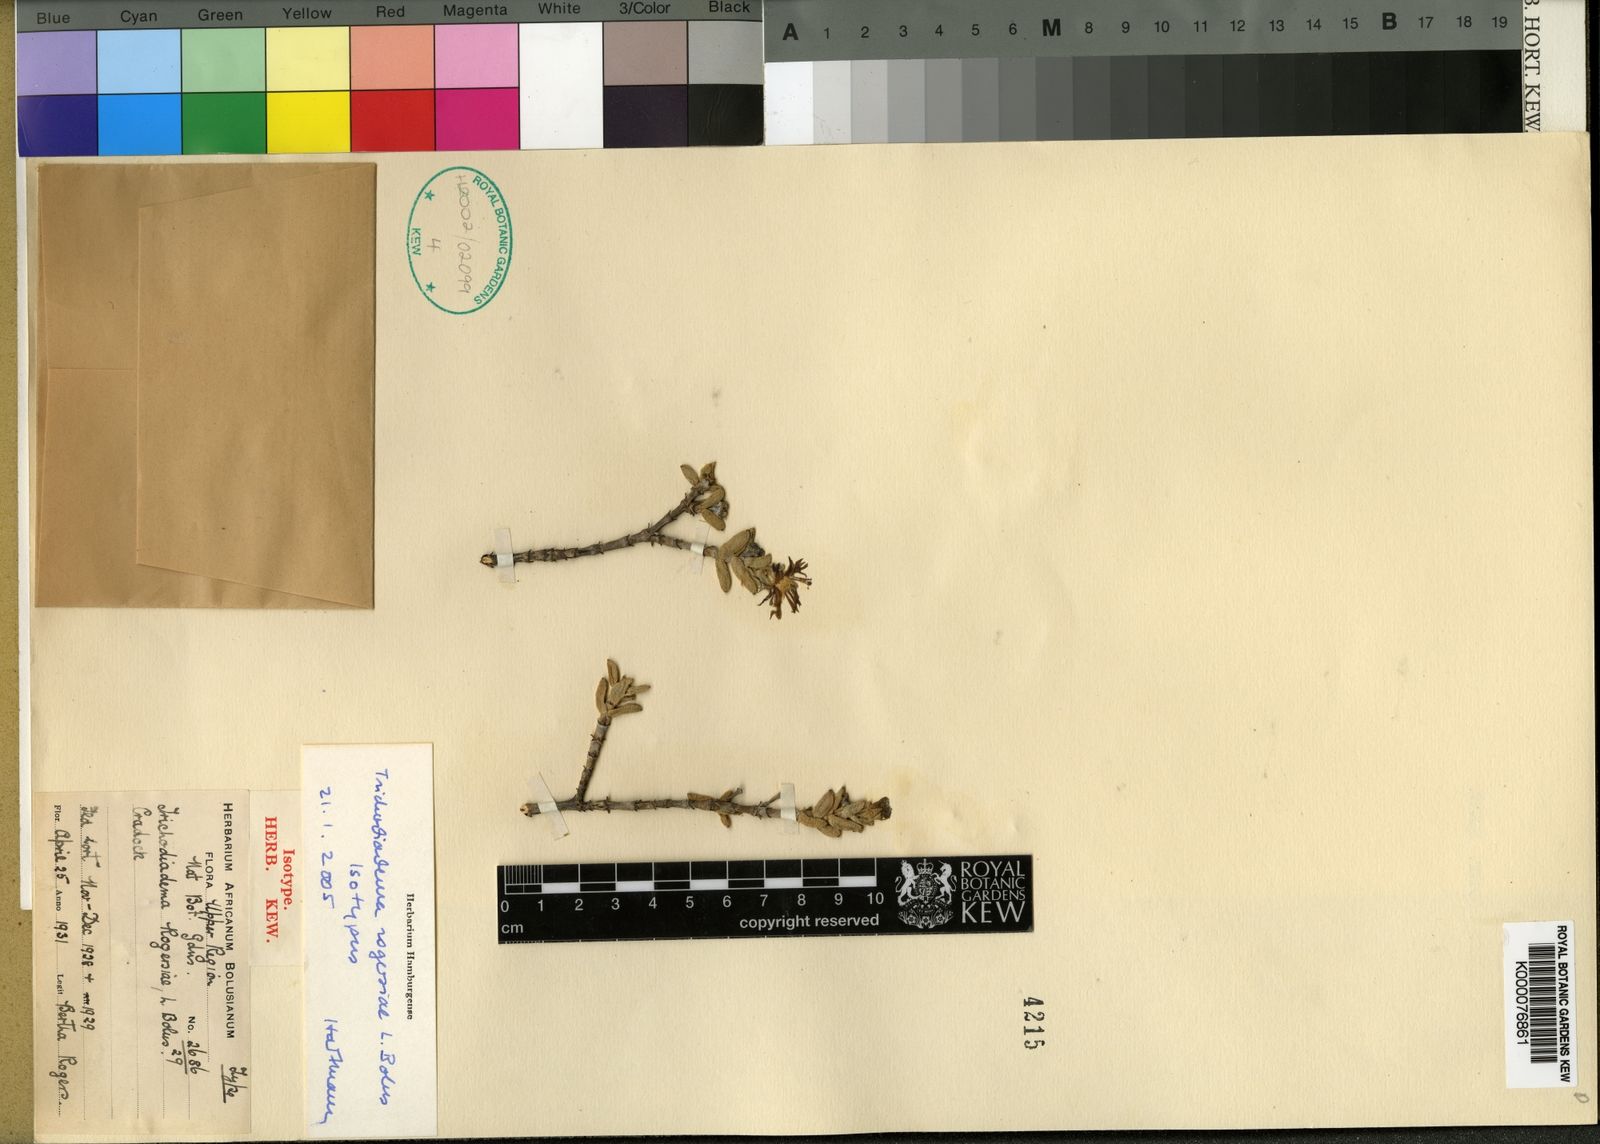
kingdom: Plantae
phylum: Tracheophyta
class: Magnoliopsida
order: Caryophyllales
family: Aizoaceae
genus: Trichodiadema
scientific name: Trichodiadema rogersiae
